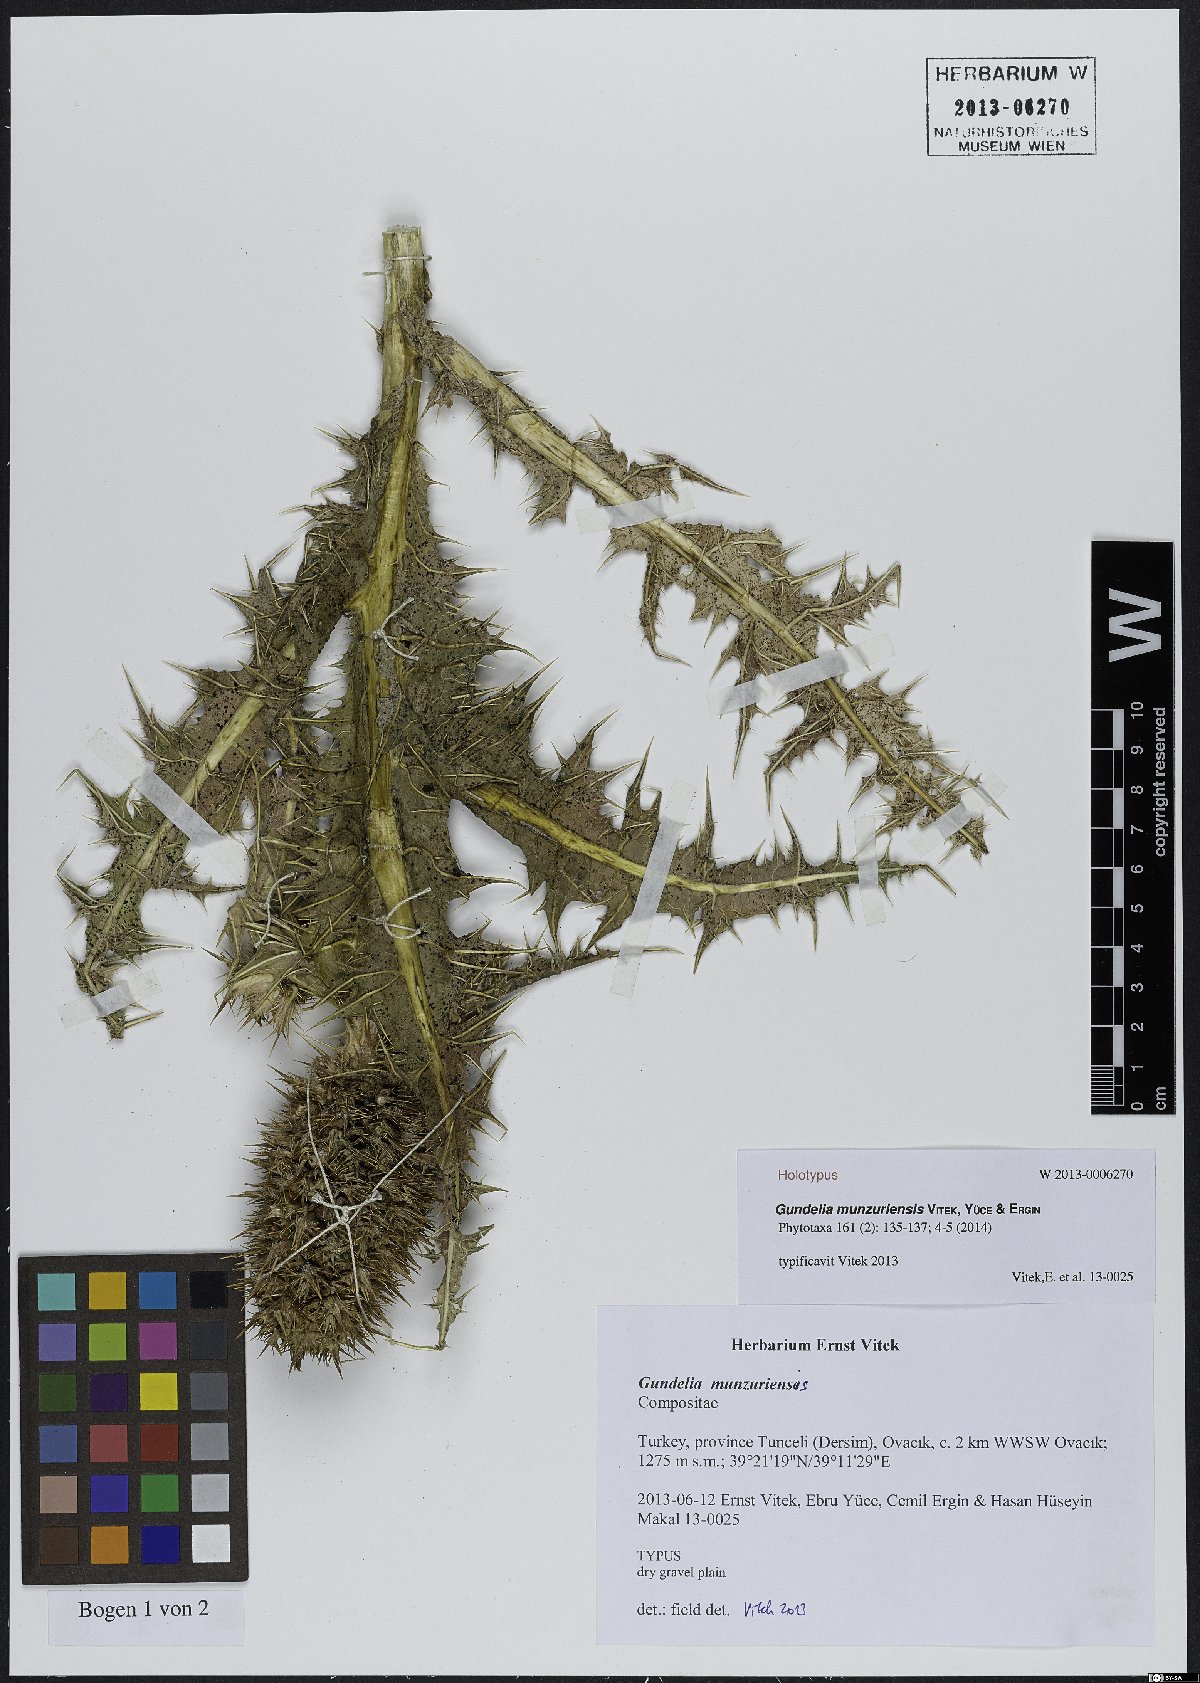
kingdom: Plantae
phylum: Tracheophyta
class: Magnoliopsida
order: Asterales
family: Asteraceae
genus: Gundelia
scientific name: Gundelia munzuriensis
